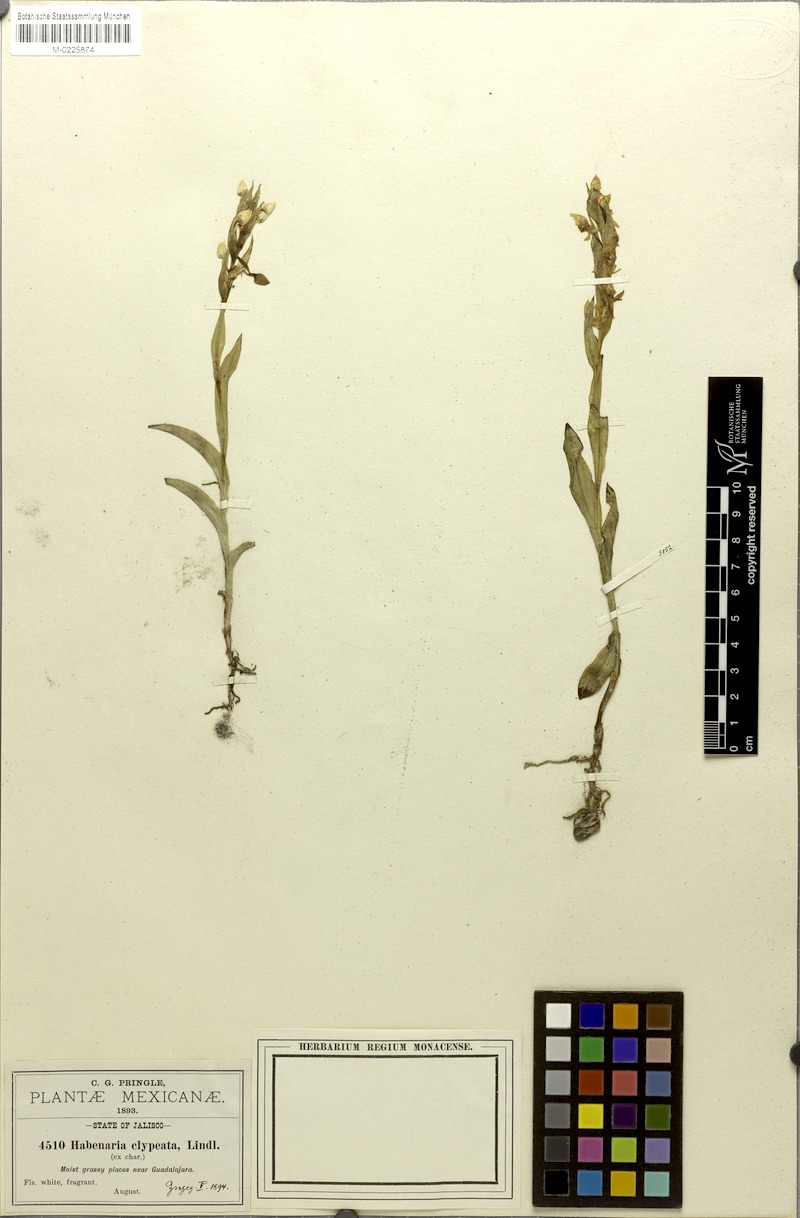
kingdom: Plantae
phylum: Tracheophyta
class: Liliopsida
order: Asparagales
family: Orchidaceae
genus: Habenaria
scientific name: Habenaria clypeata
